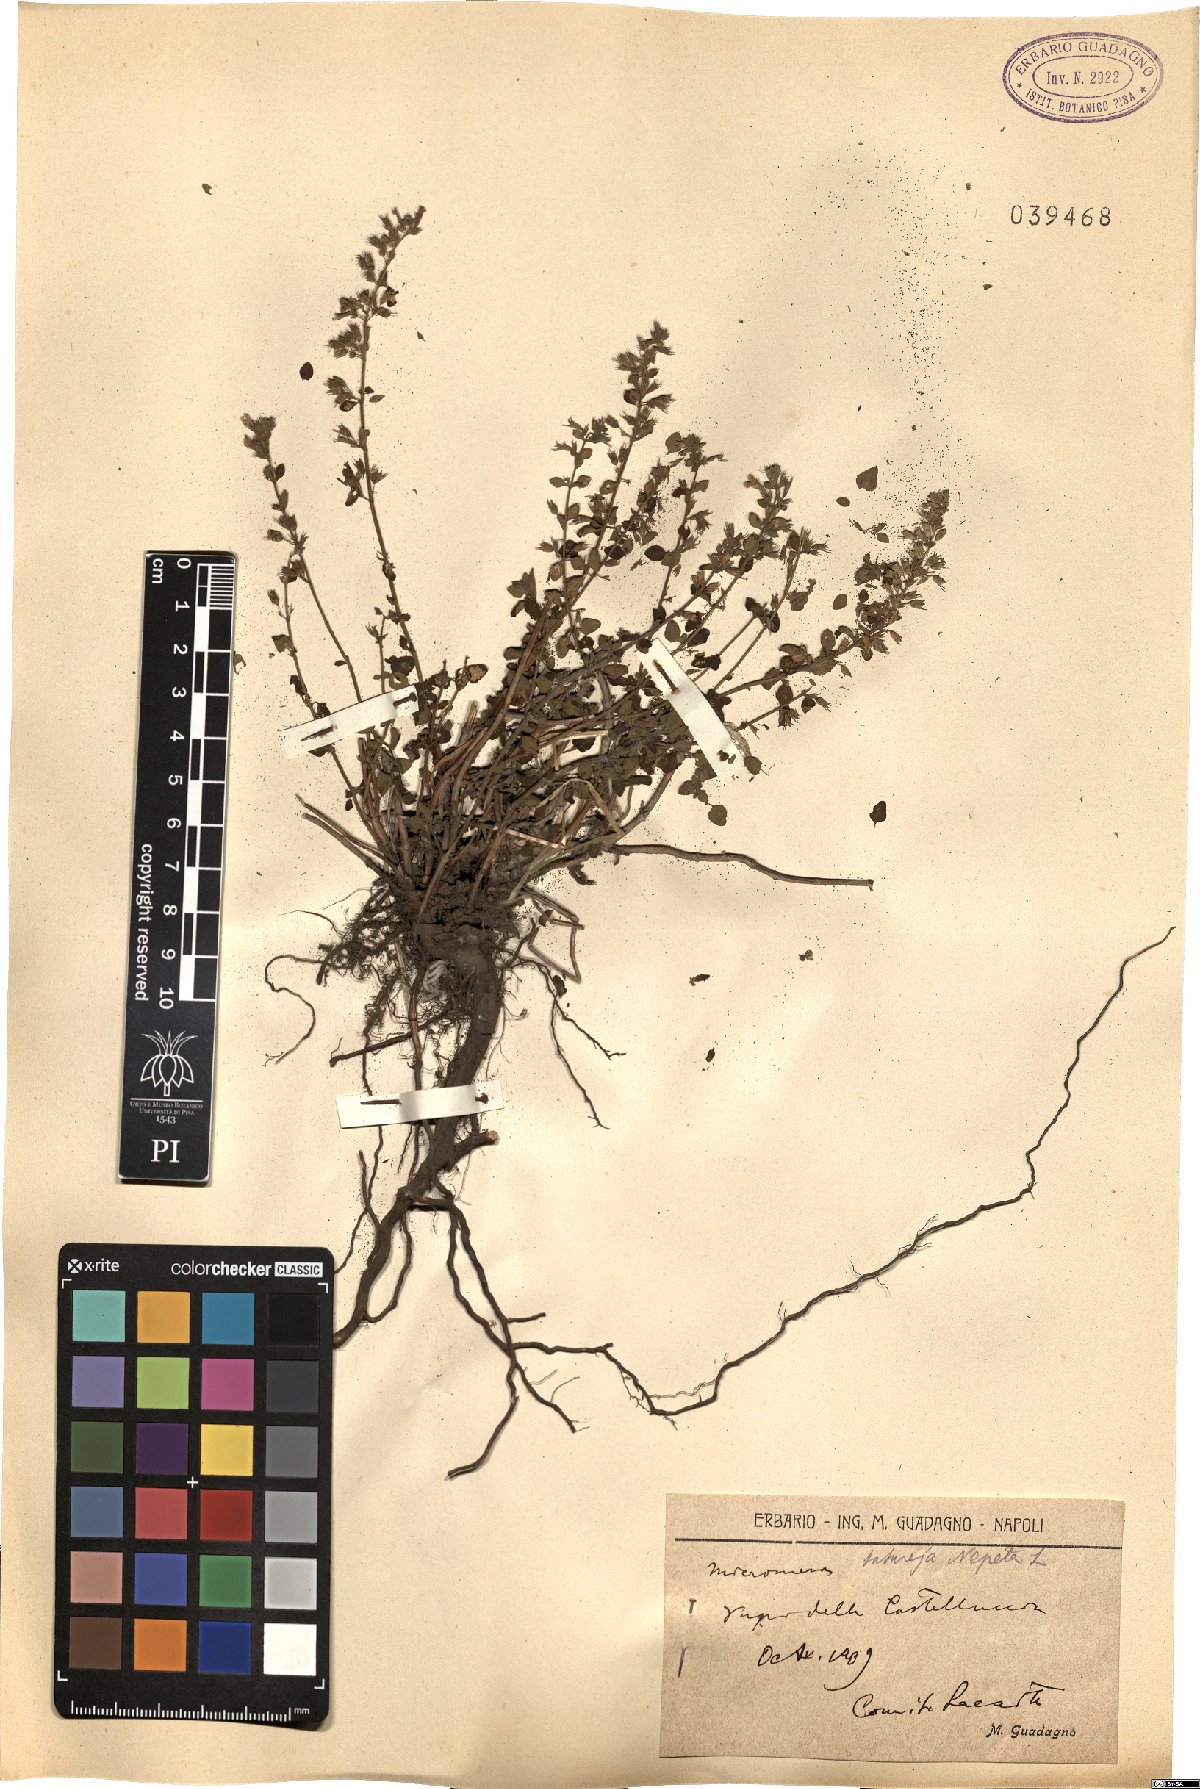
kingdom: Plantae
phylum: Tracheophyta
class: Magnoliopsida
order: Lamiales
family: Lamiaceae
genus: Clinopodium
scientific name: Clinopodium nepeta
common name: Lesser calamint
